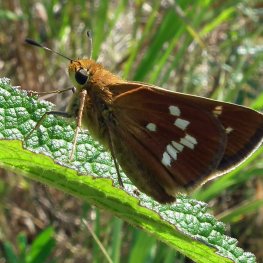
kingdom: Animalia
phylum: Arthropoda
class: Insecta
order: Lepidoptera
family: Hesperiidae
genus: Hesperia
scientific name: Hesperia leonardus
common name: Leonard's Skipper
